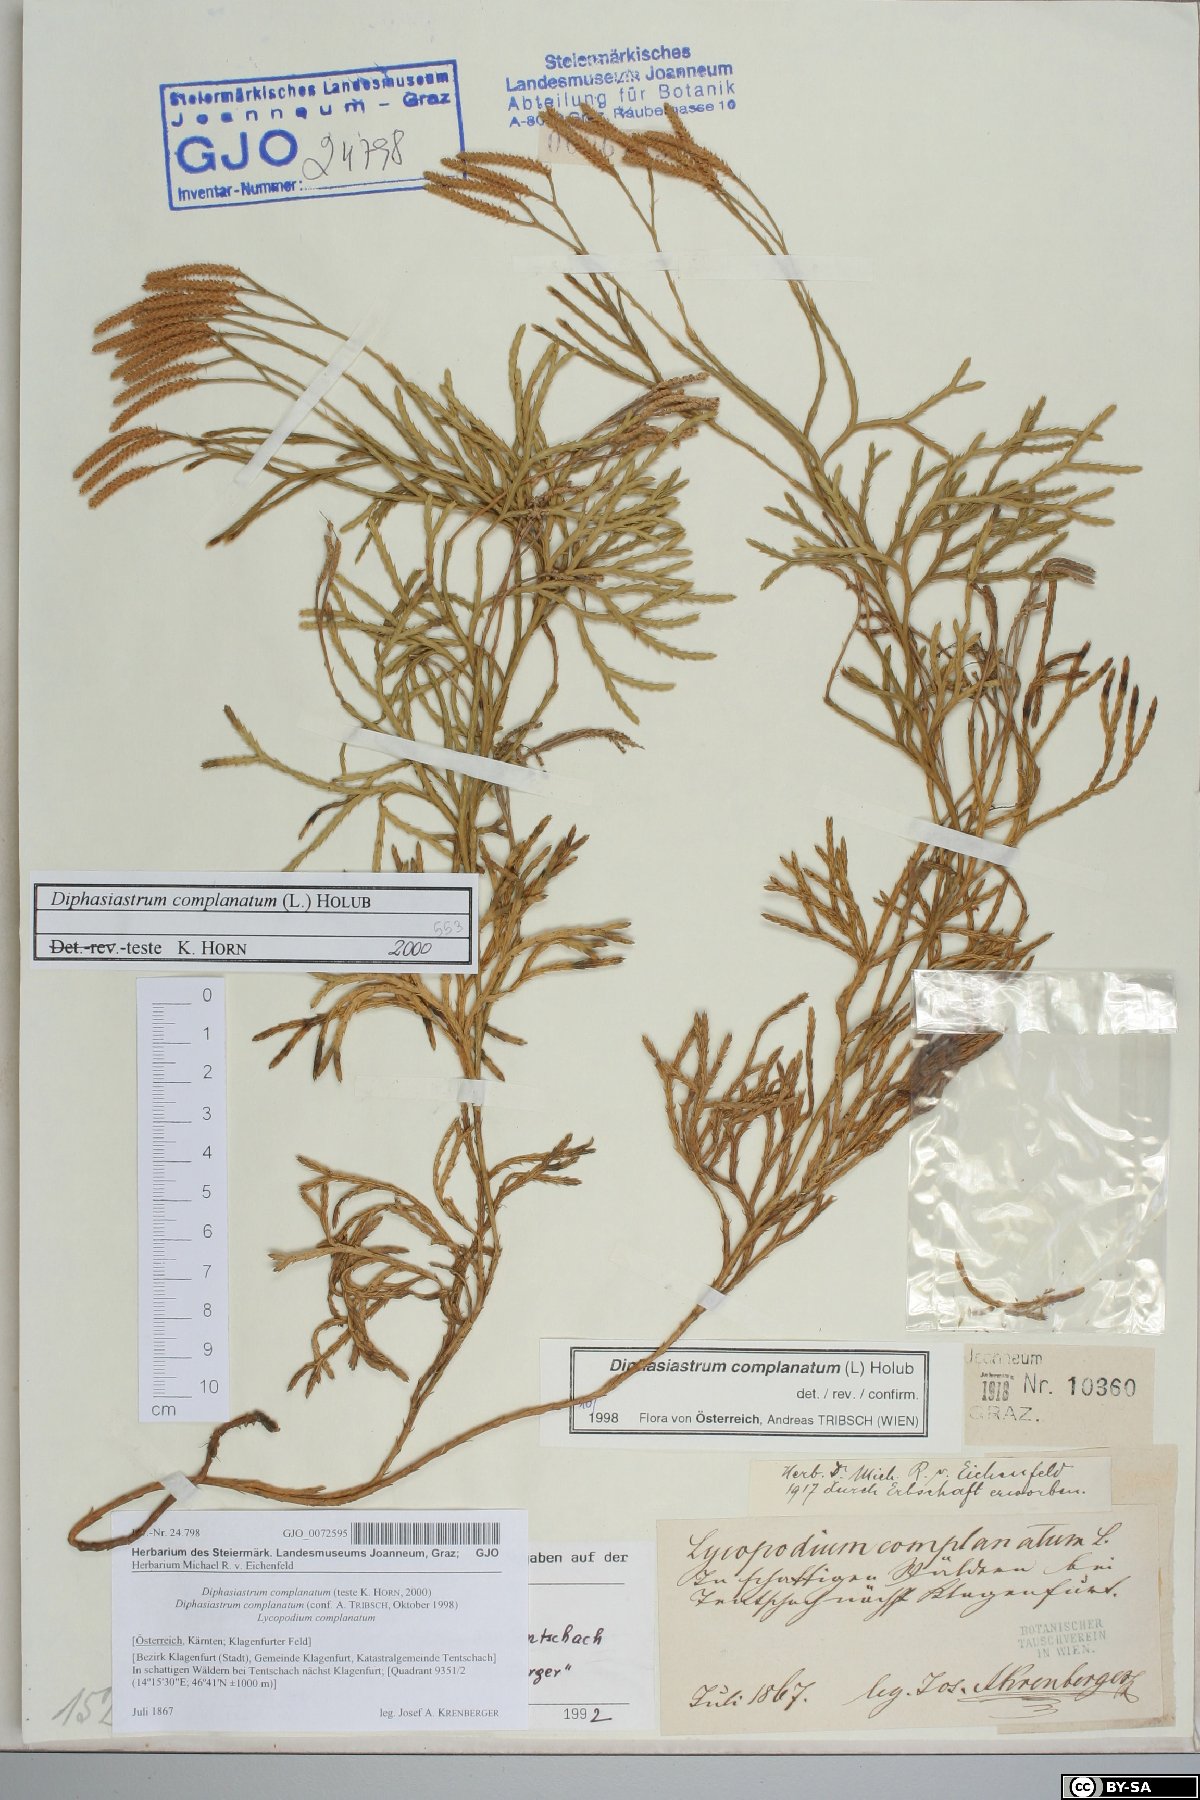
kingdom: Plantae
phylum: Tracheophyta
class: Lycopodiopsida
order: Lycopodiales
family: Lycopodiaceae
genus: Diphasiastrum
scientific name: Diphasiastrum complanatum
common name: Northern running-pine
